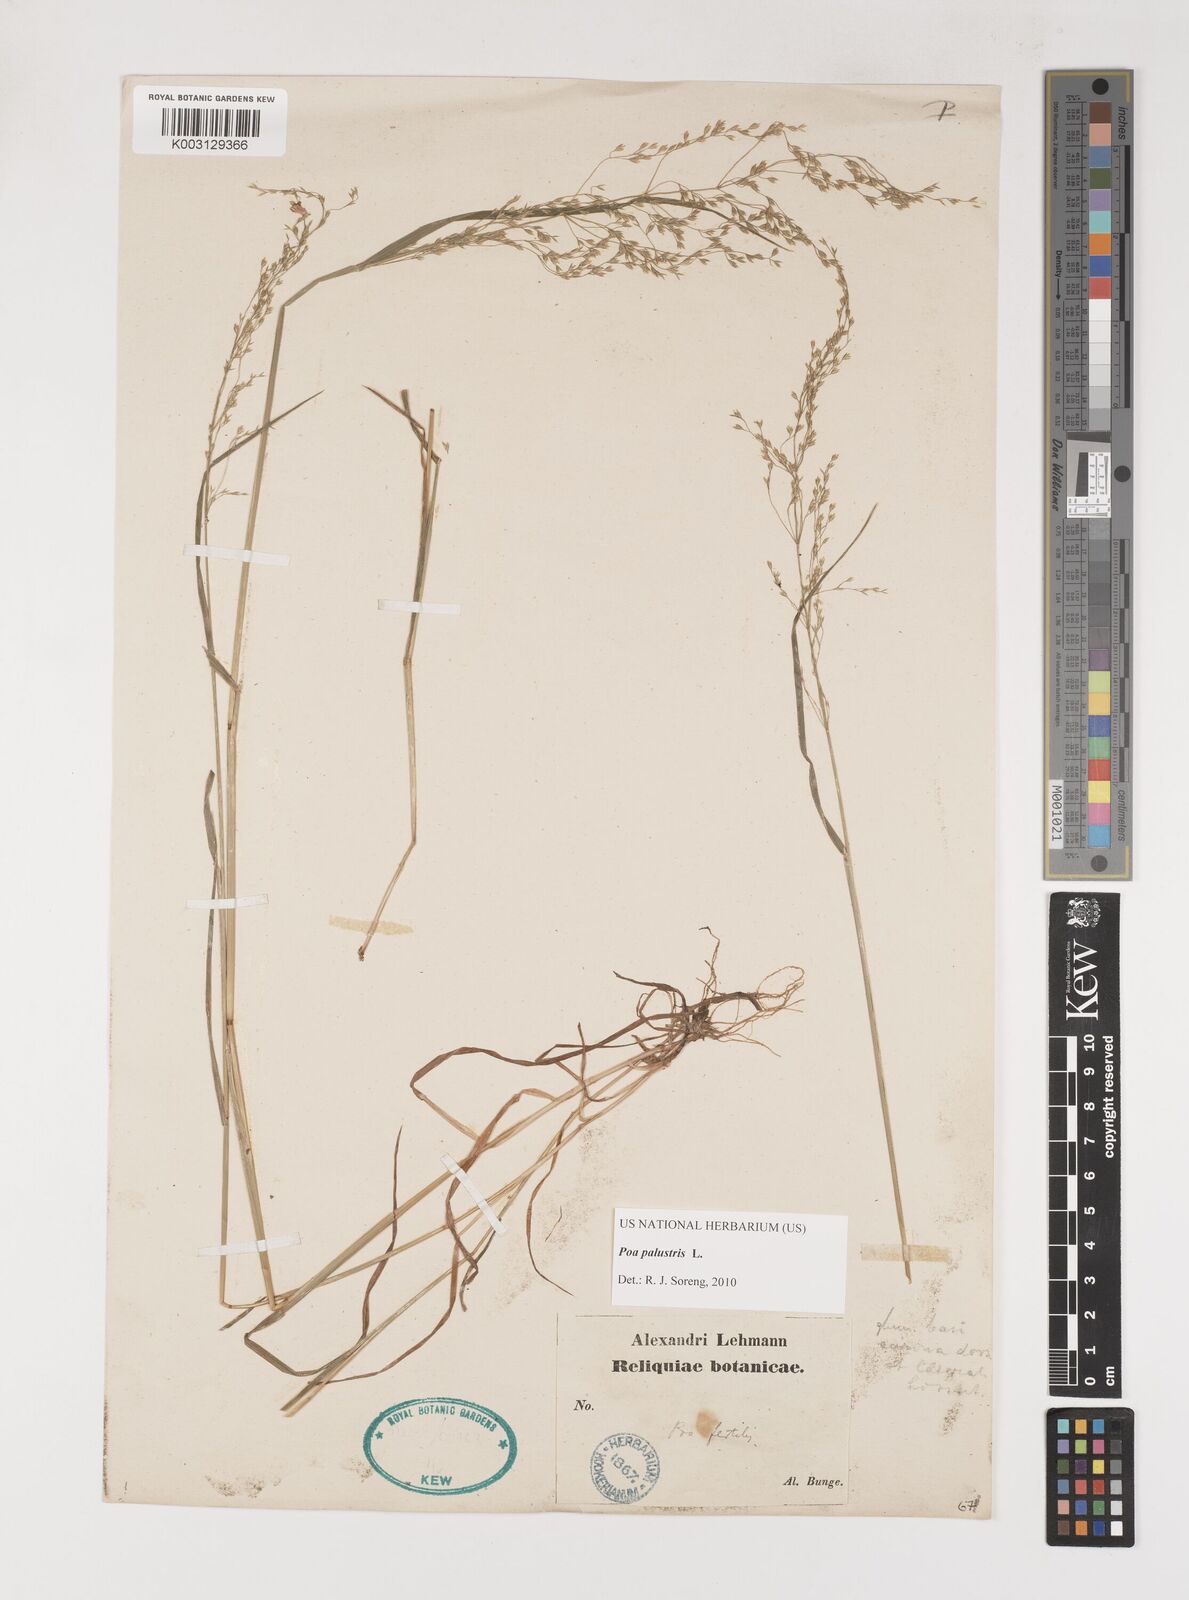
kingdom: Plantae
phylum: Tracheophyta
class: Liliopsida
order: Poales
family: Poaceae
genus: Poa
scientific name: Poa palustris
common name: Swamp meadow-grass
